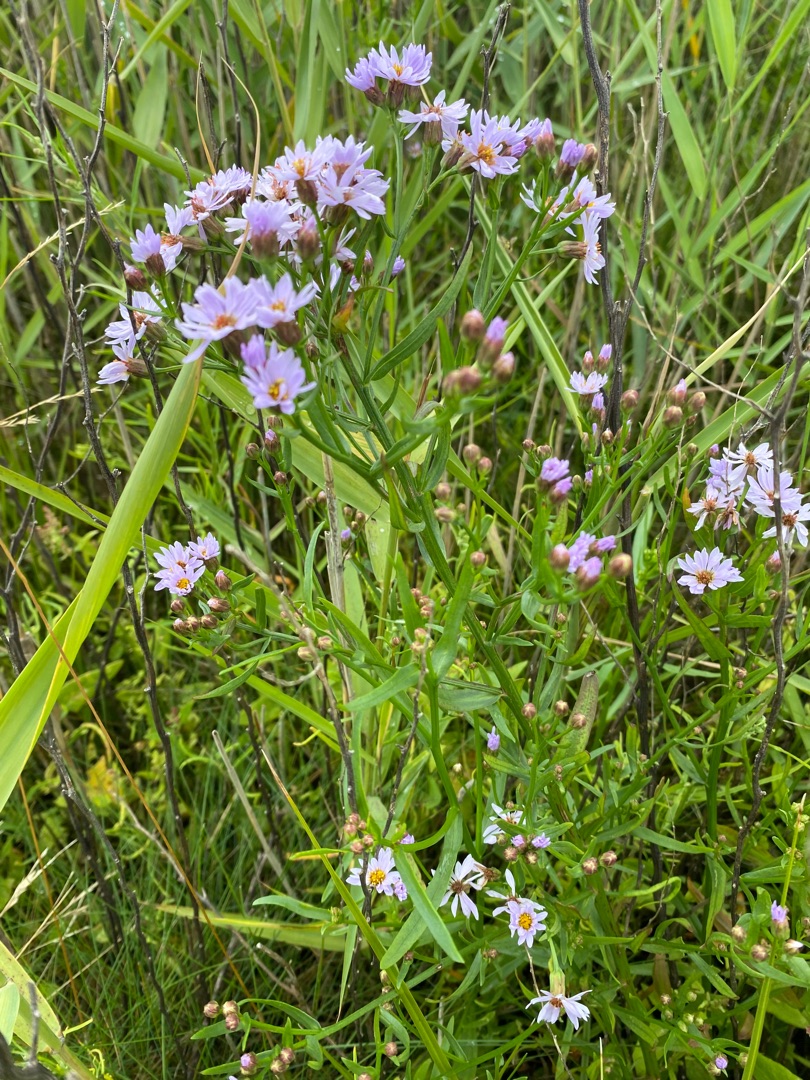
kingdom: Plantae
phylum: Tracheophyta
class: Magnoliopsida
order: Asterales
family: Asteraceae
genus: Tripolium
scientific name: Tripolium pannonicum
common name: Strandasters
